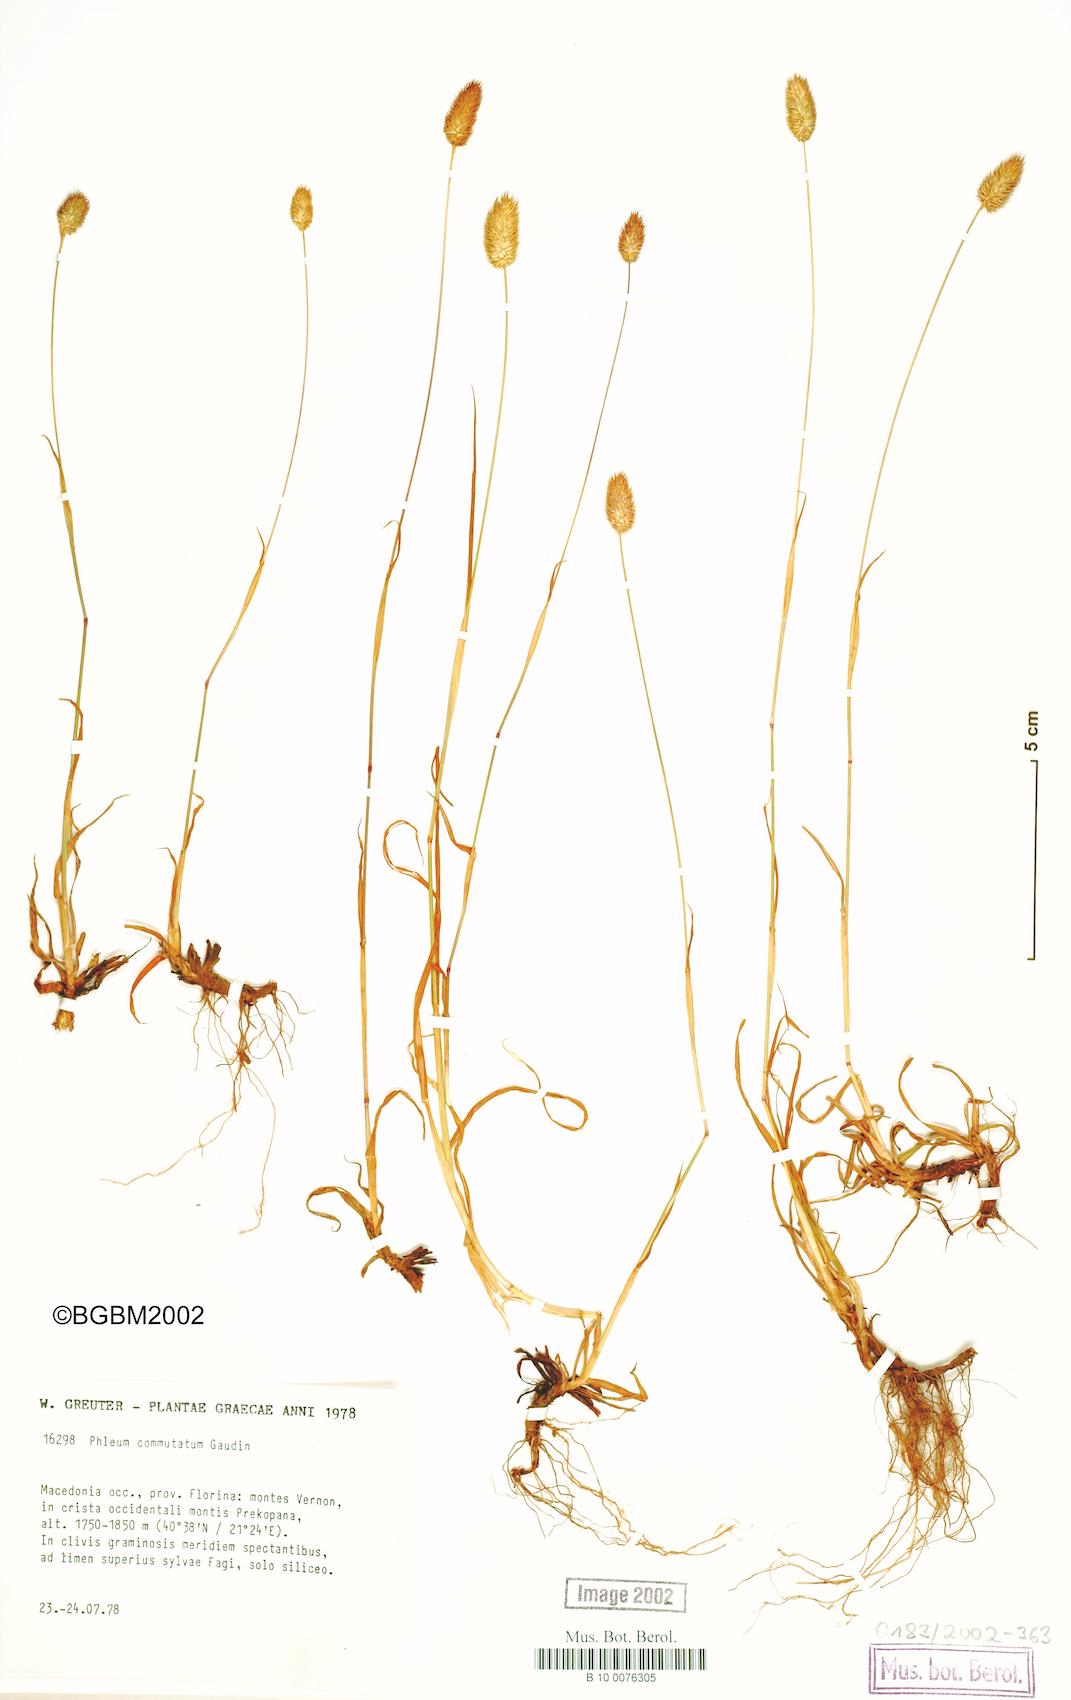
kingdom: Plantae
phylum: Tracheophyta
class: Liliopsida
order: Poales
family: Poaceae
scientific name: Poaceae
